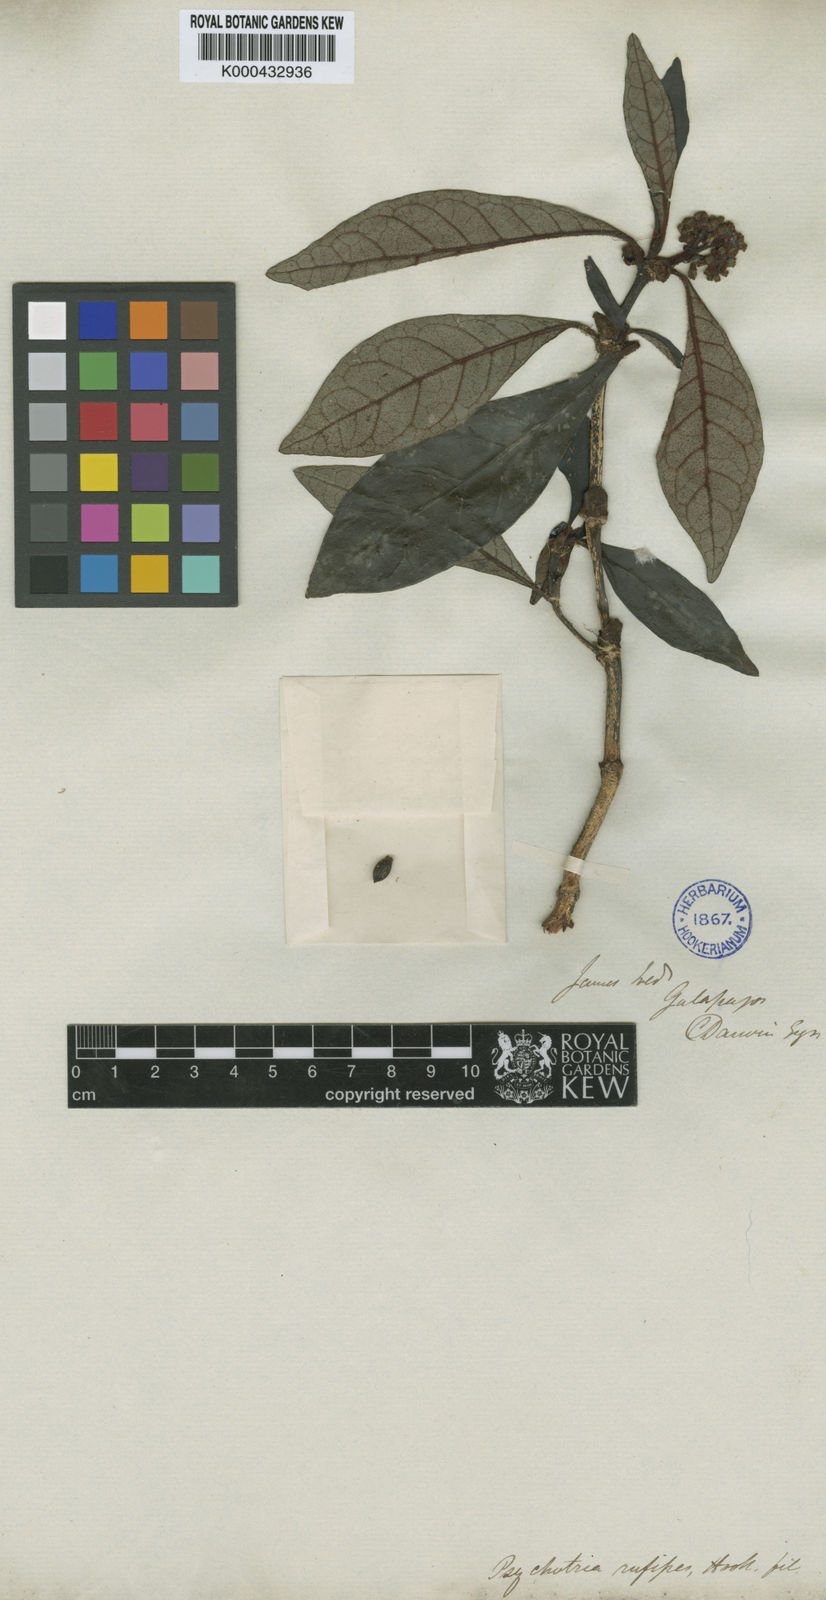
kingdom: Plantae
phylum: Tracheophyta
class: Magnoliopsida
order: Gentianales
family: Rubiaceae
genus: Psychotria
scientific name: Psychotria rufipes
